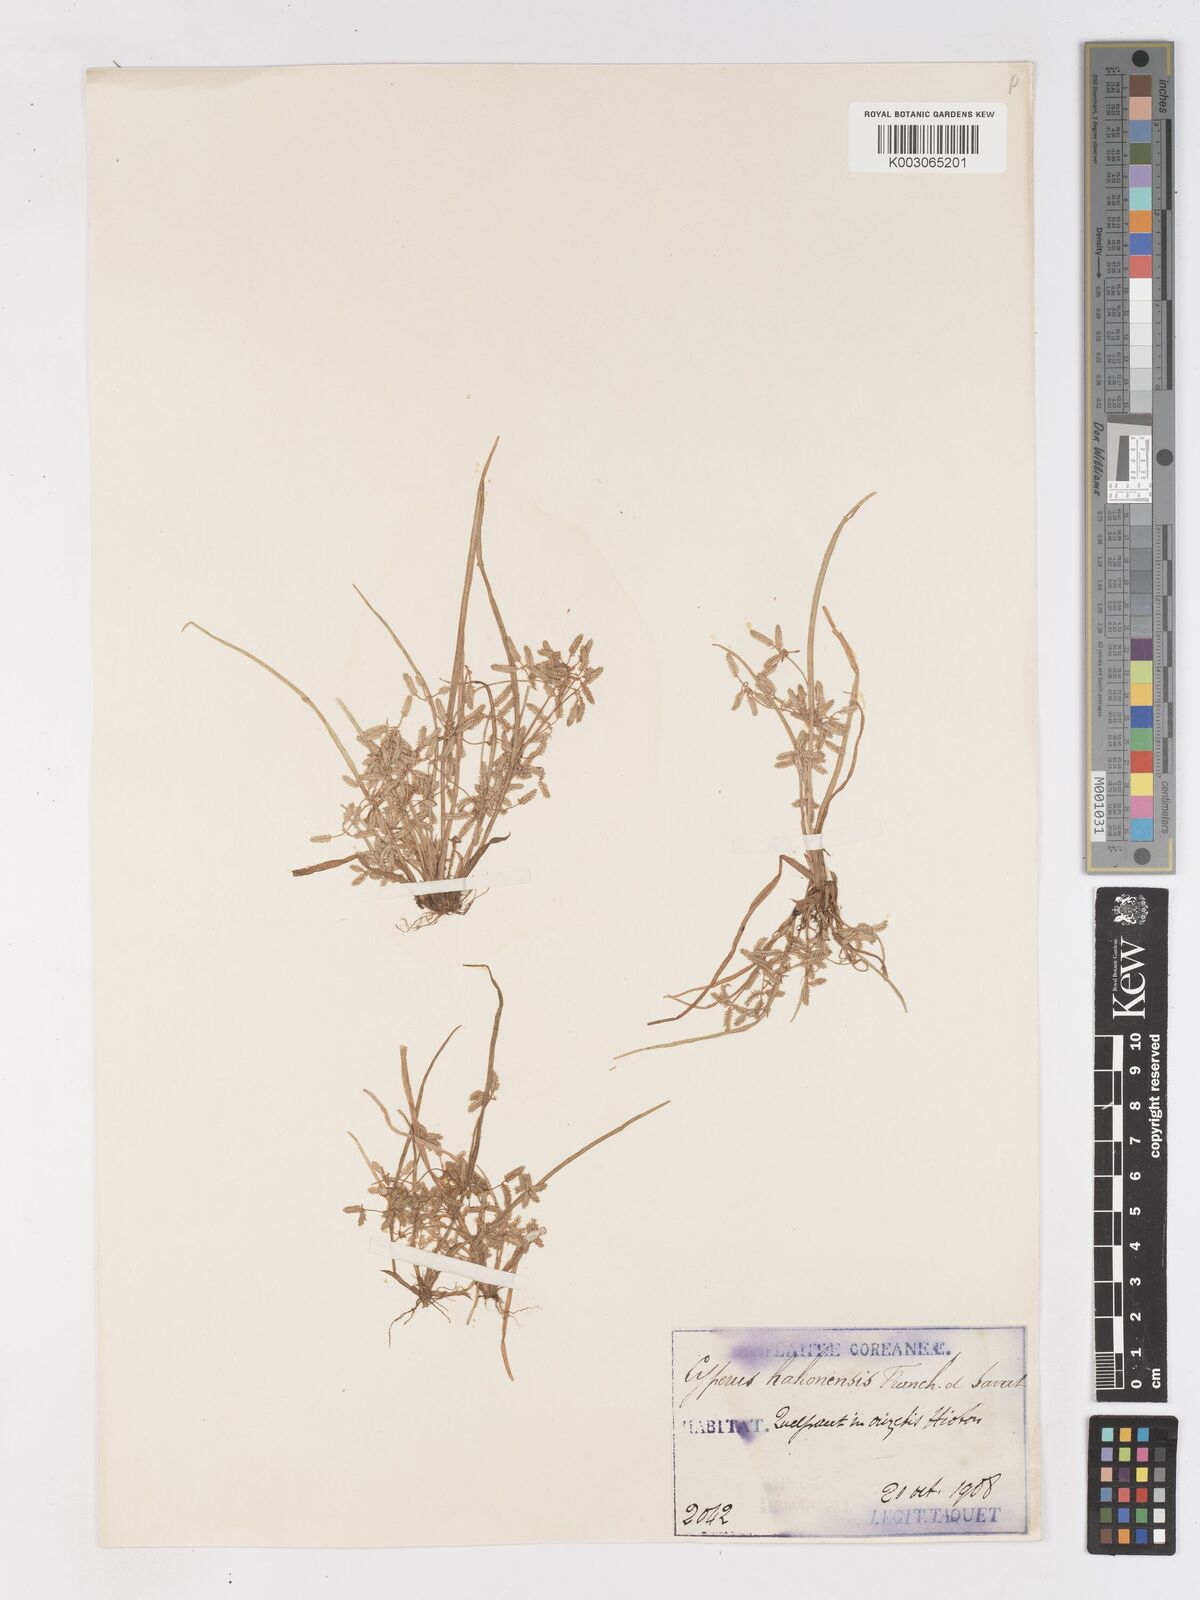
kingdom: Plantae
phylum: Tracheophyta
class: Liliopsida
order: Poales
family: Cyperaceae
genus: Cyperus
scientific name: Cyperus flaccidus
